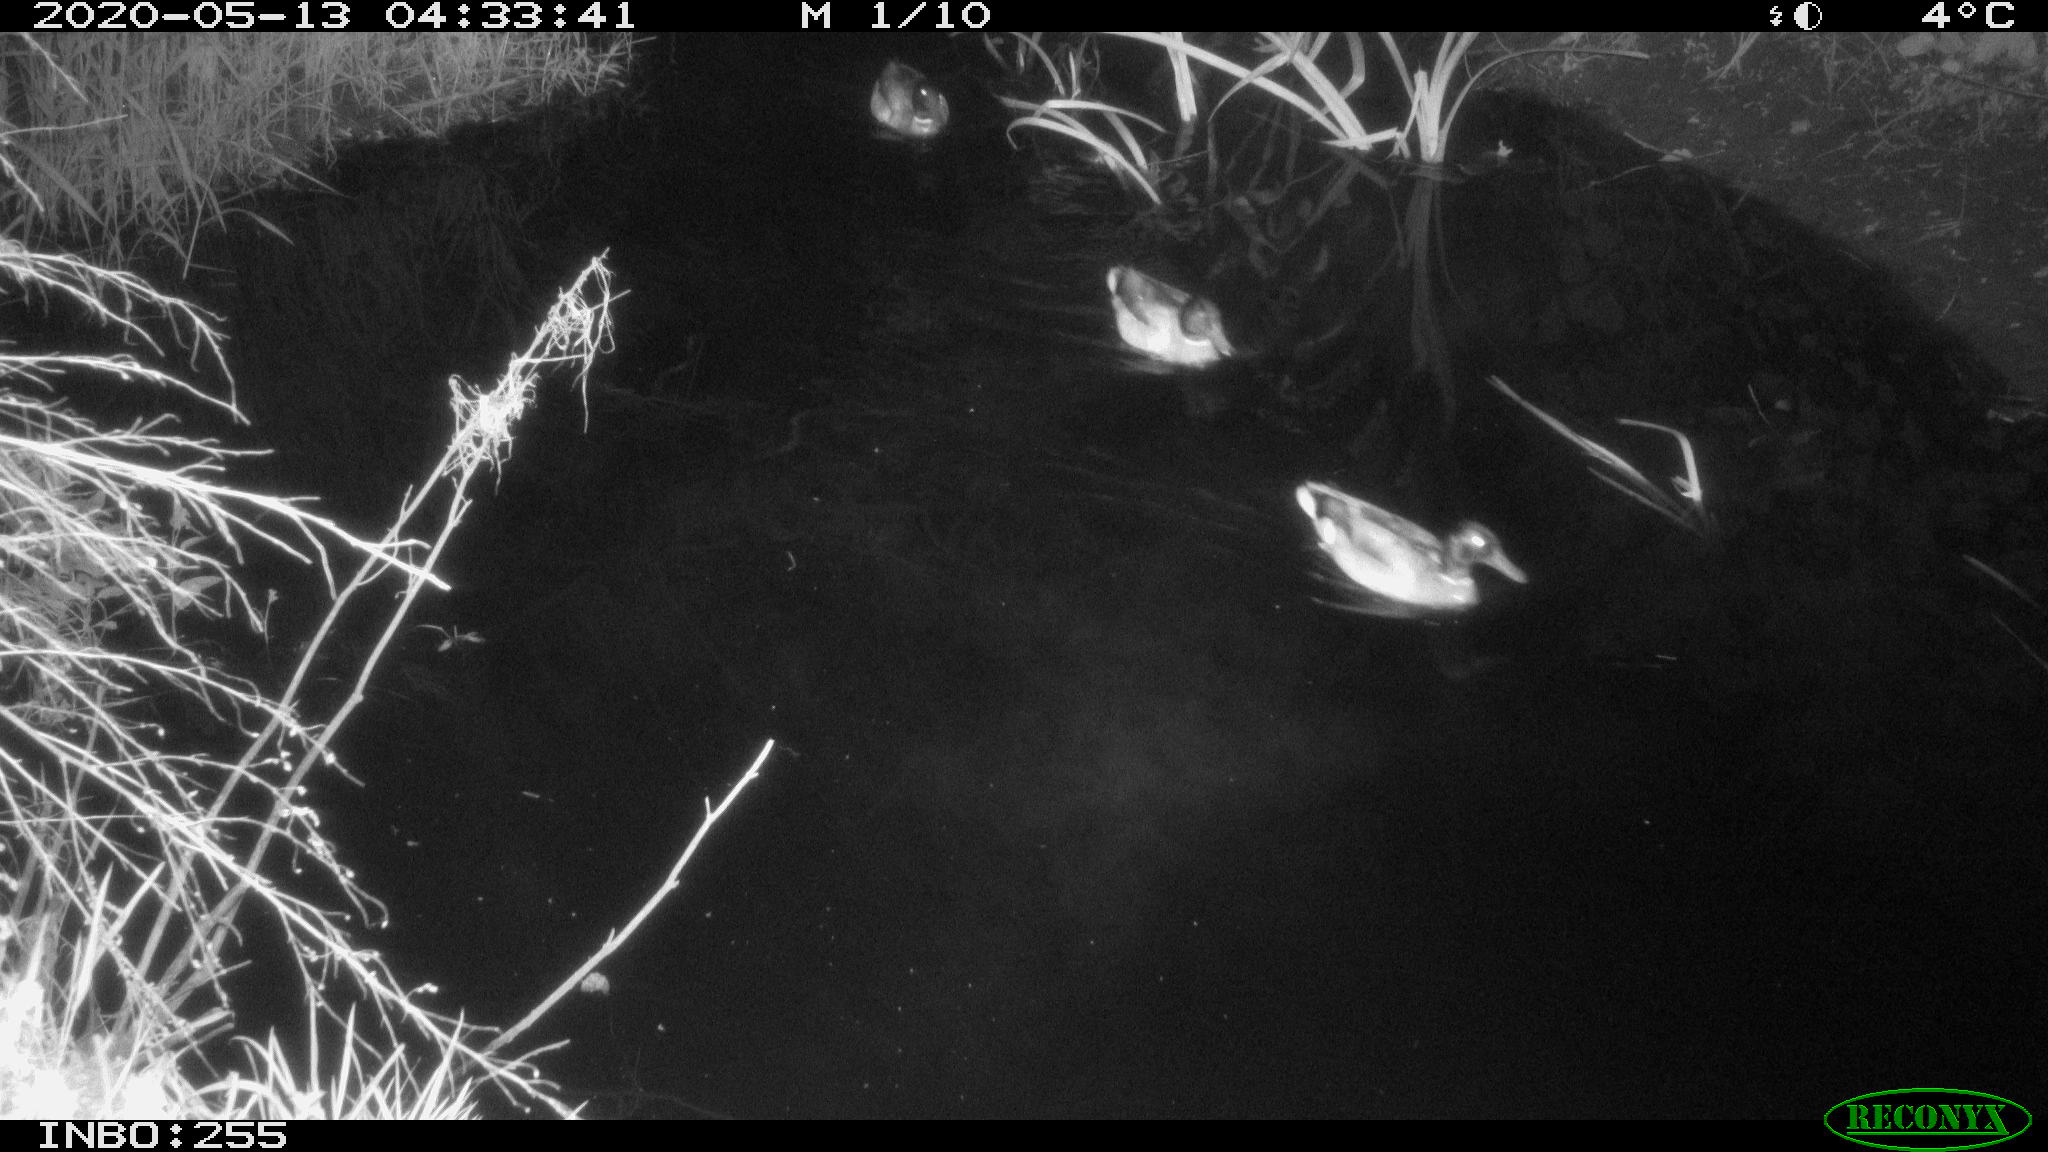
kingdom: Animalia
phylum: Chordata
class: Aves
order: Anseriformes
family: Anatidae
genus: Anas
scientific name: Anas platyrhynchos
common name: Mallard
